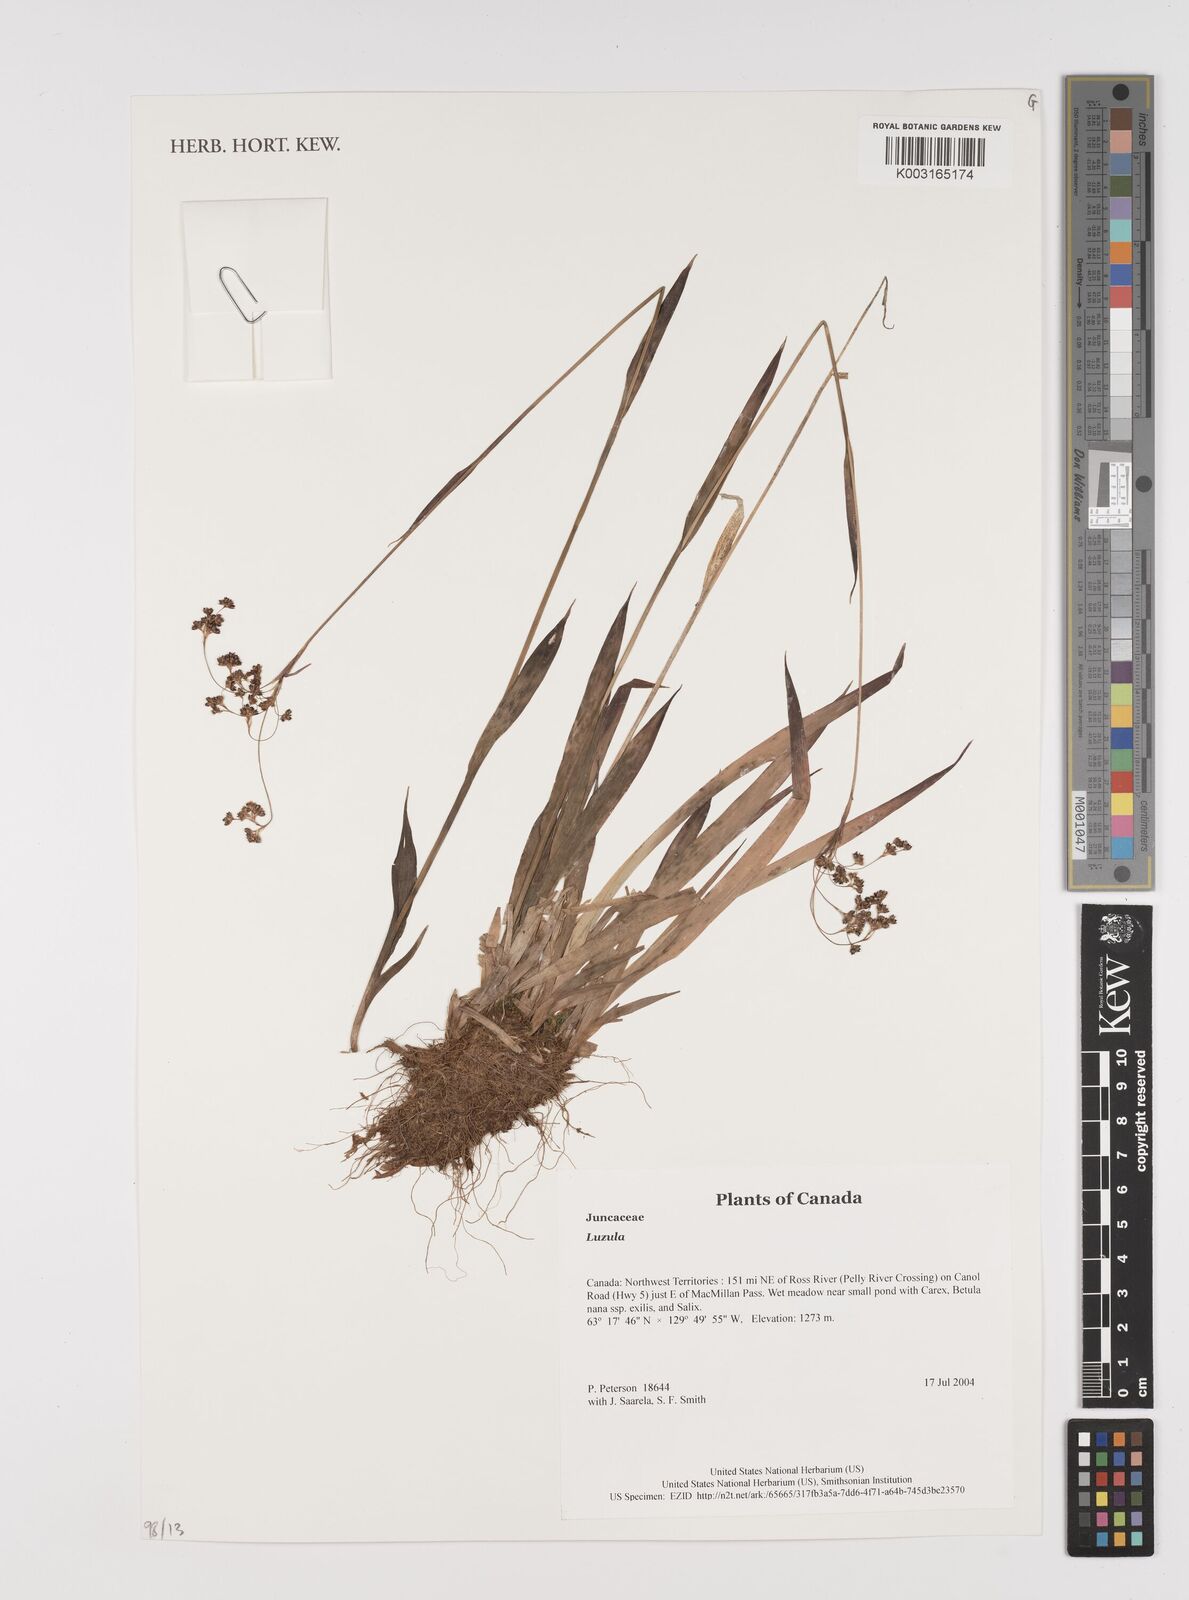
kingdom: Plantae
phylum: Tracheophyta
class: Liliopsida
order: Poales
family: Juncaceae
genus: Luzula
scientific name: Luzula
